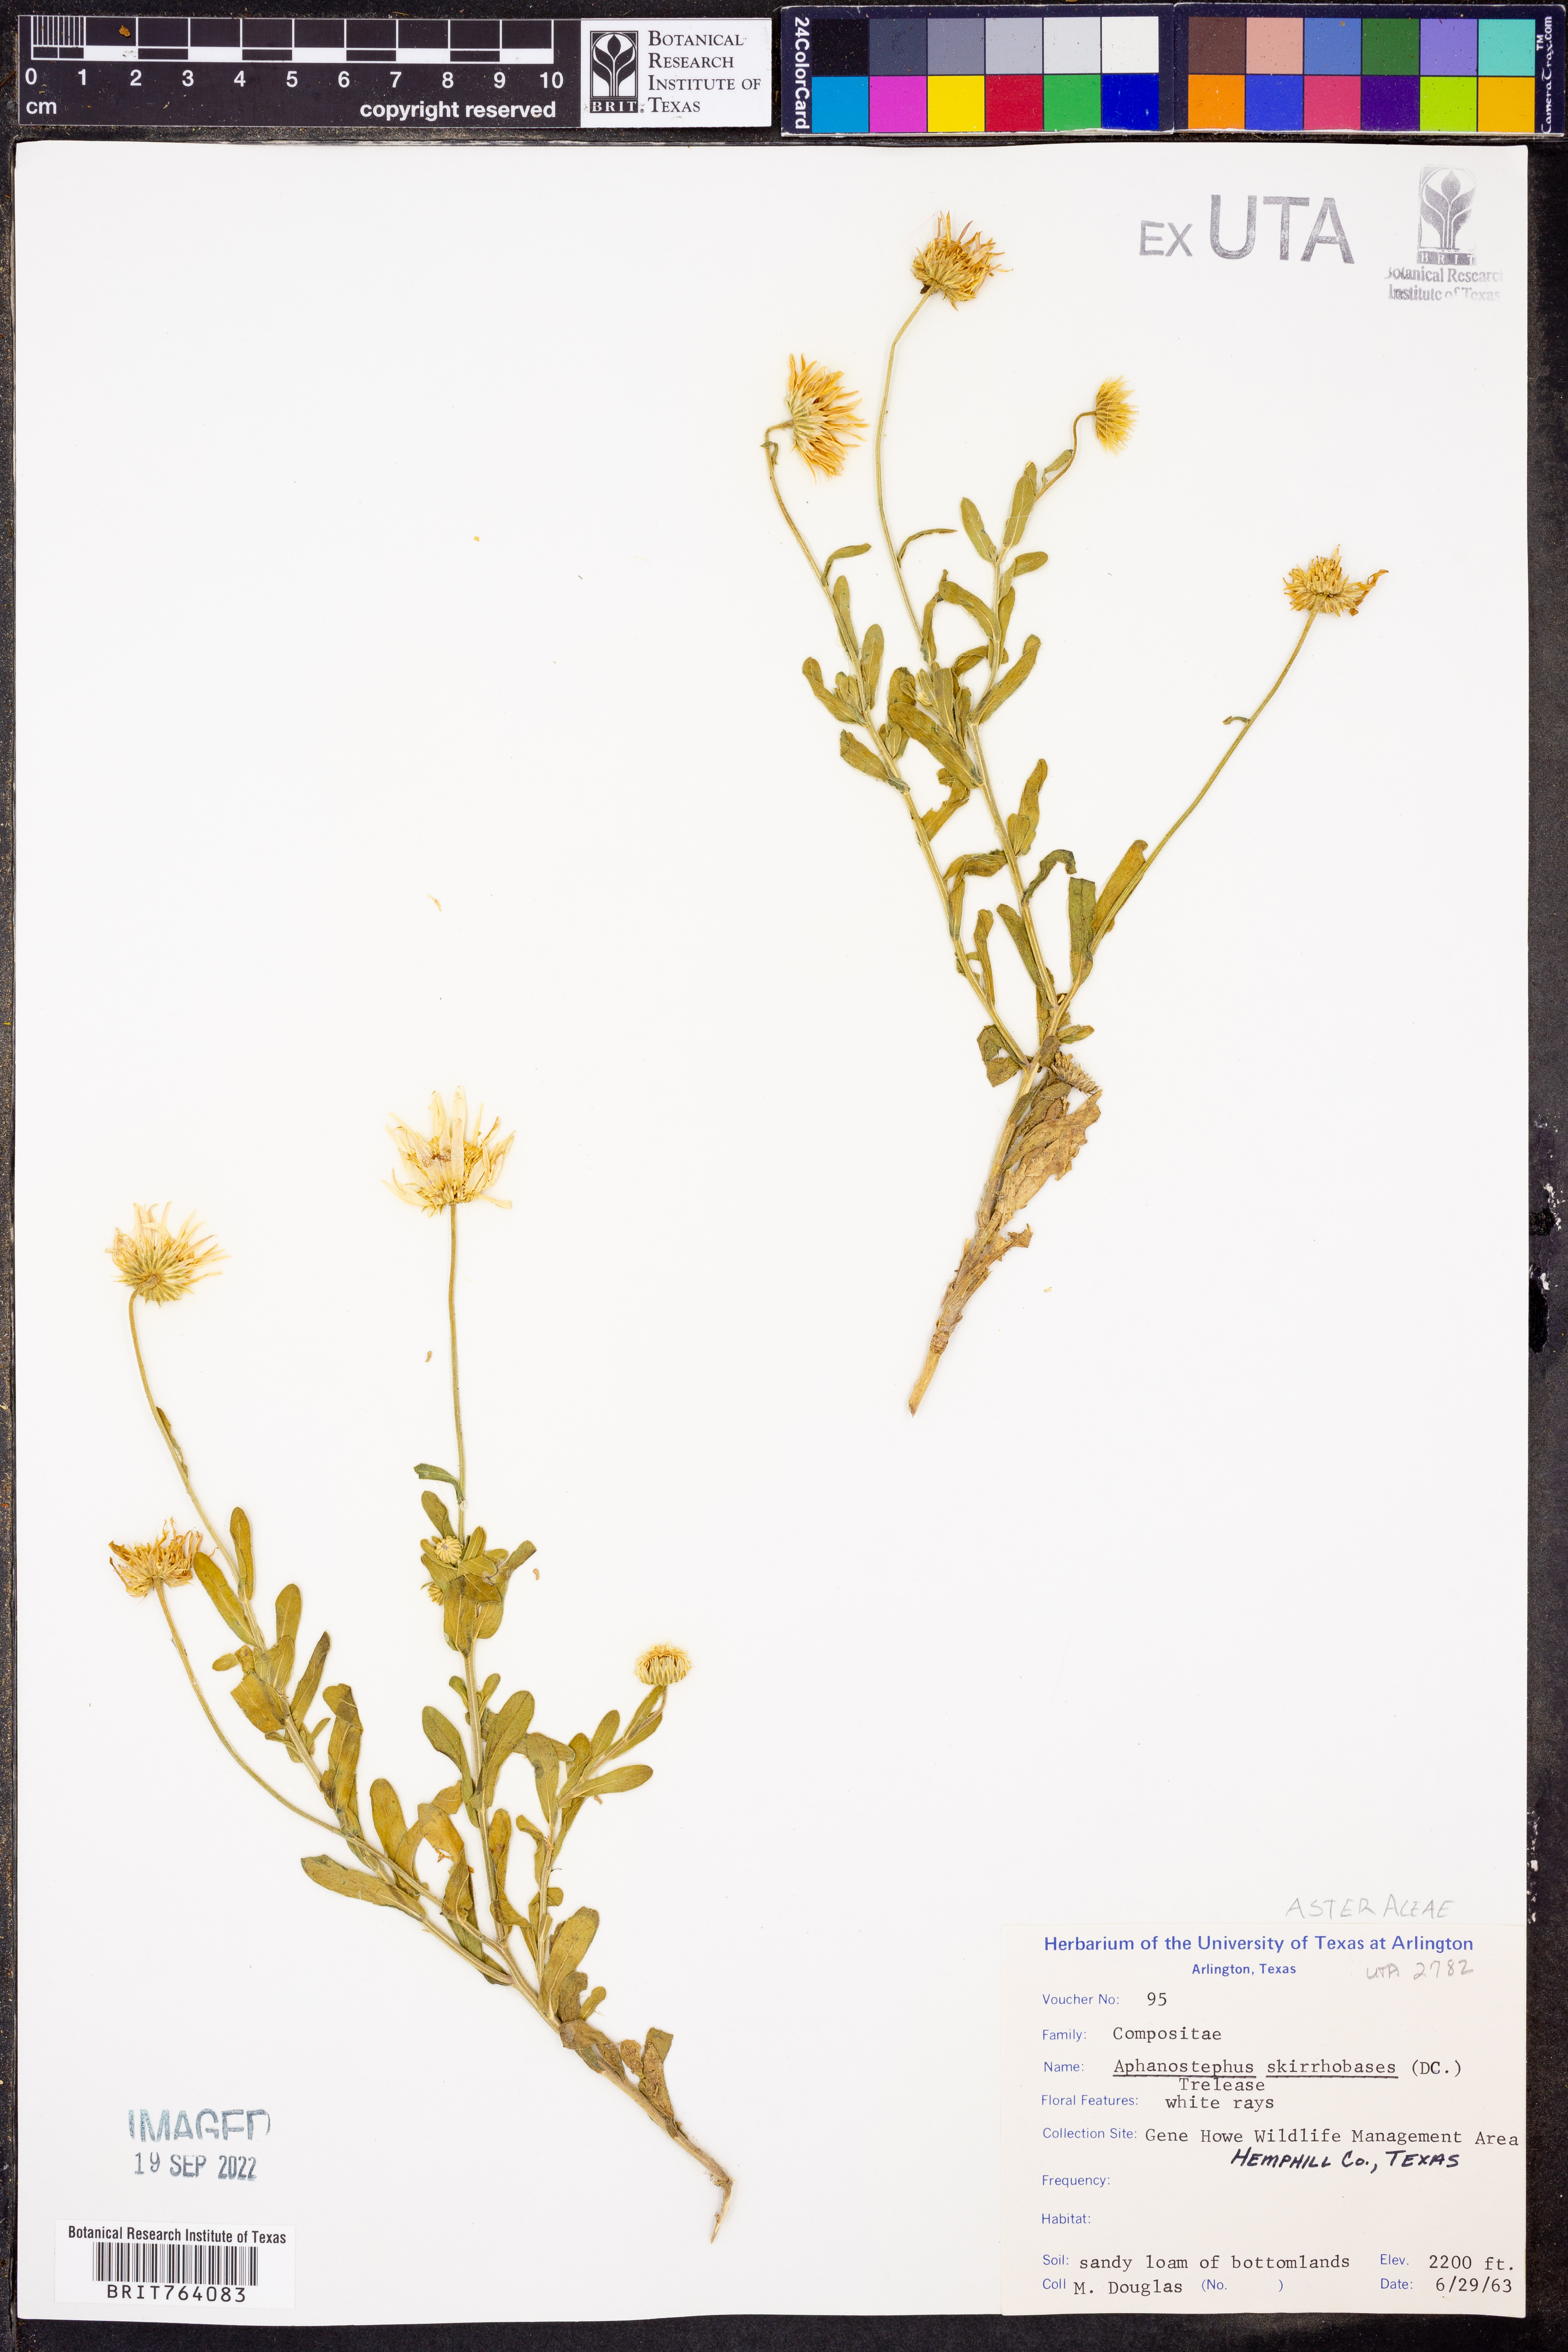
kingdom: Plantae
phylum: Tracheophyta
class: Magnoliopsida
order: Asterales
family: Asteraceae
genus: Aphanostephus
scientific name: Aphanostephus skirrhobasis
